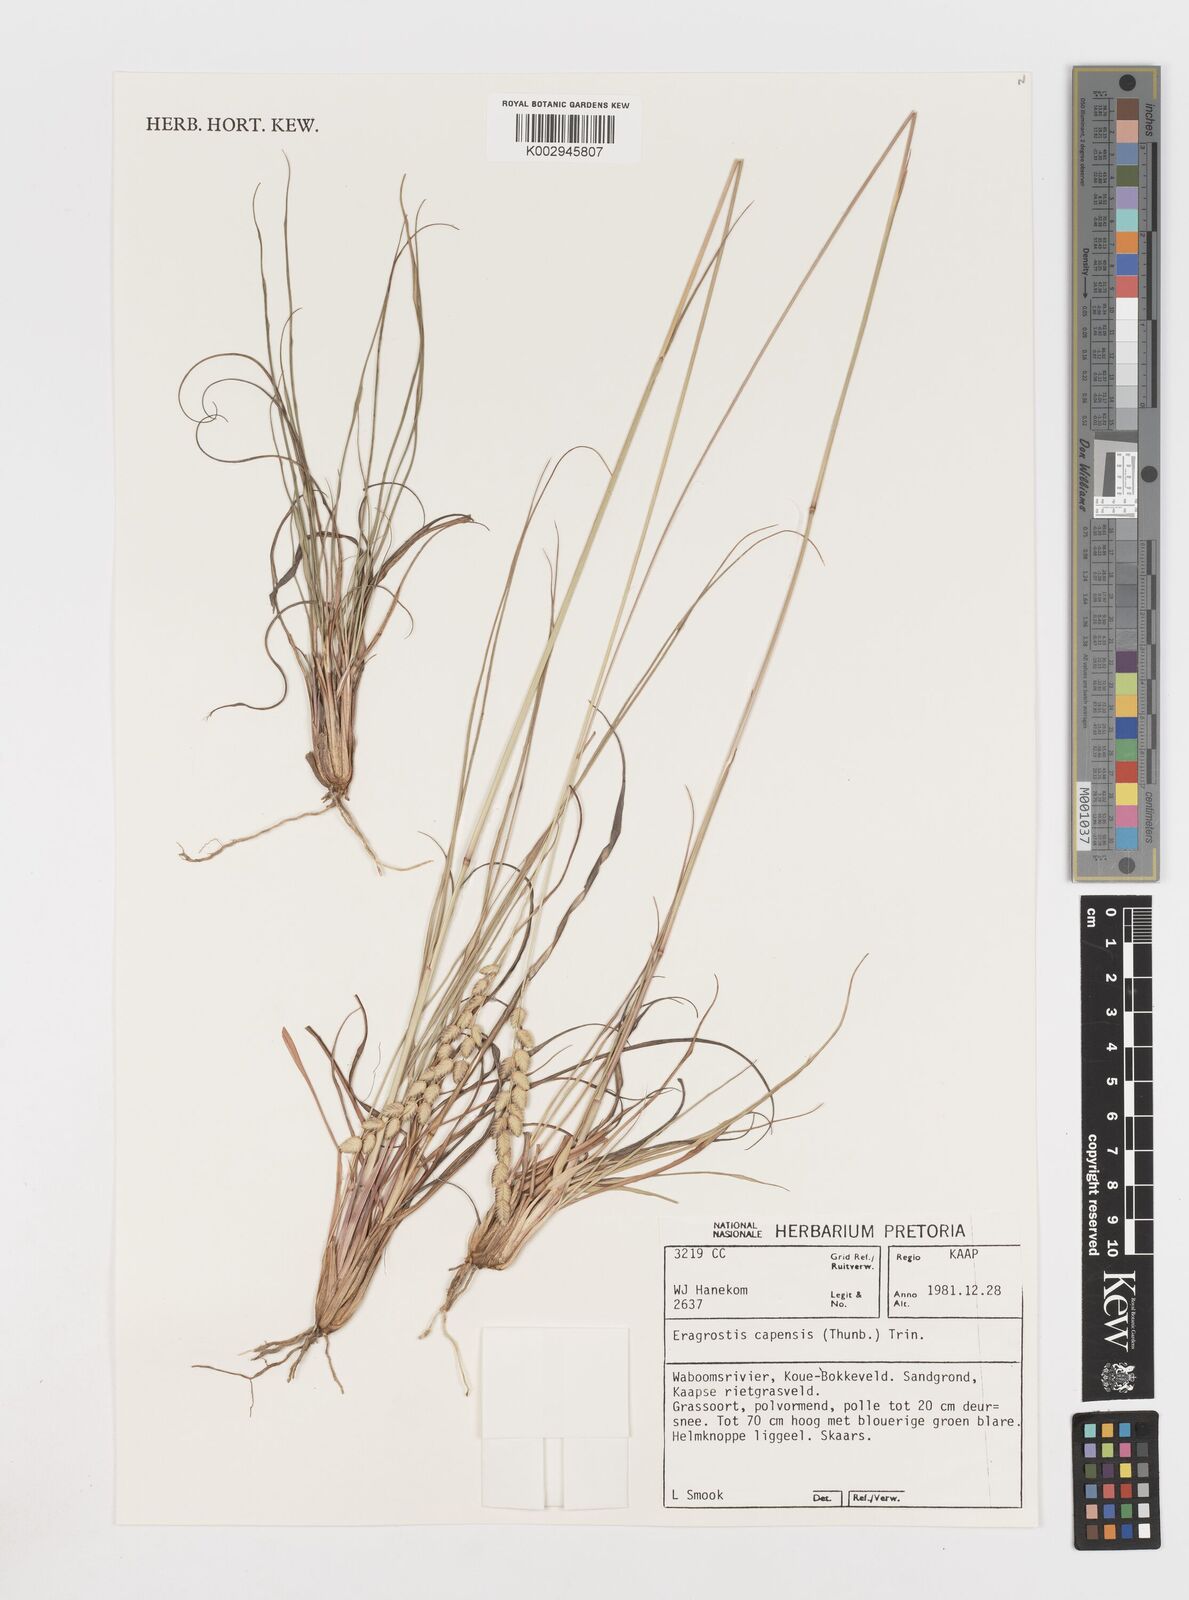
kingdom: Plantae
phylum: Tracheophyta
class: Liliopsida
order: Poales
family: Poaceae
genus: Eragrostis
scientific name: Eragrostis capensis
